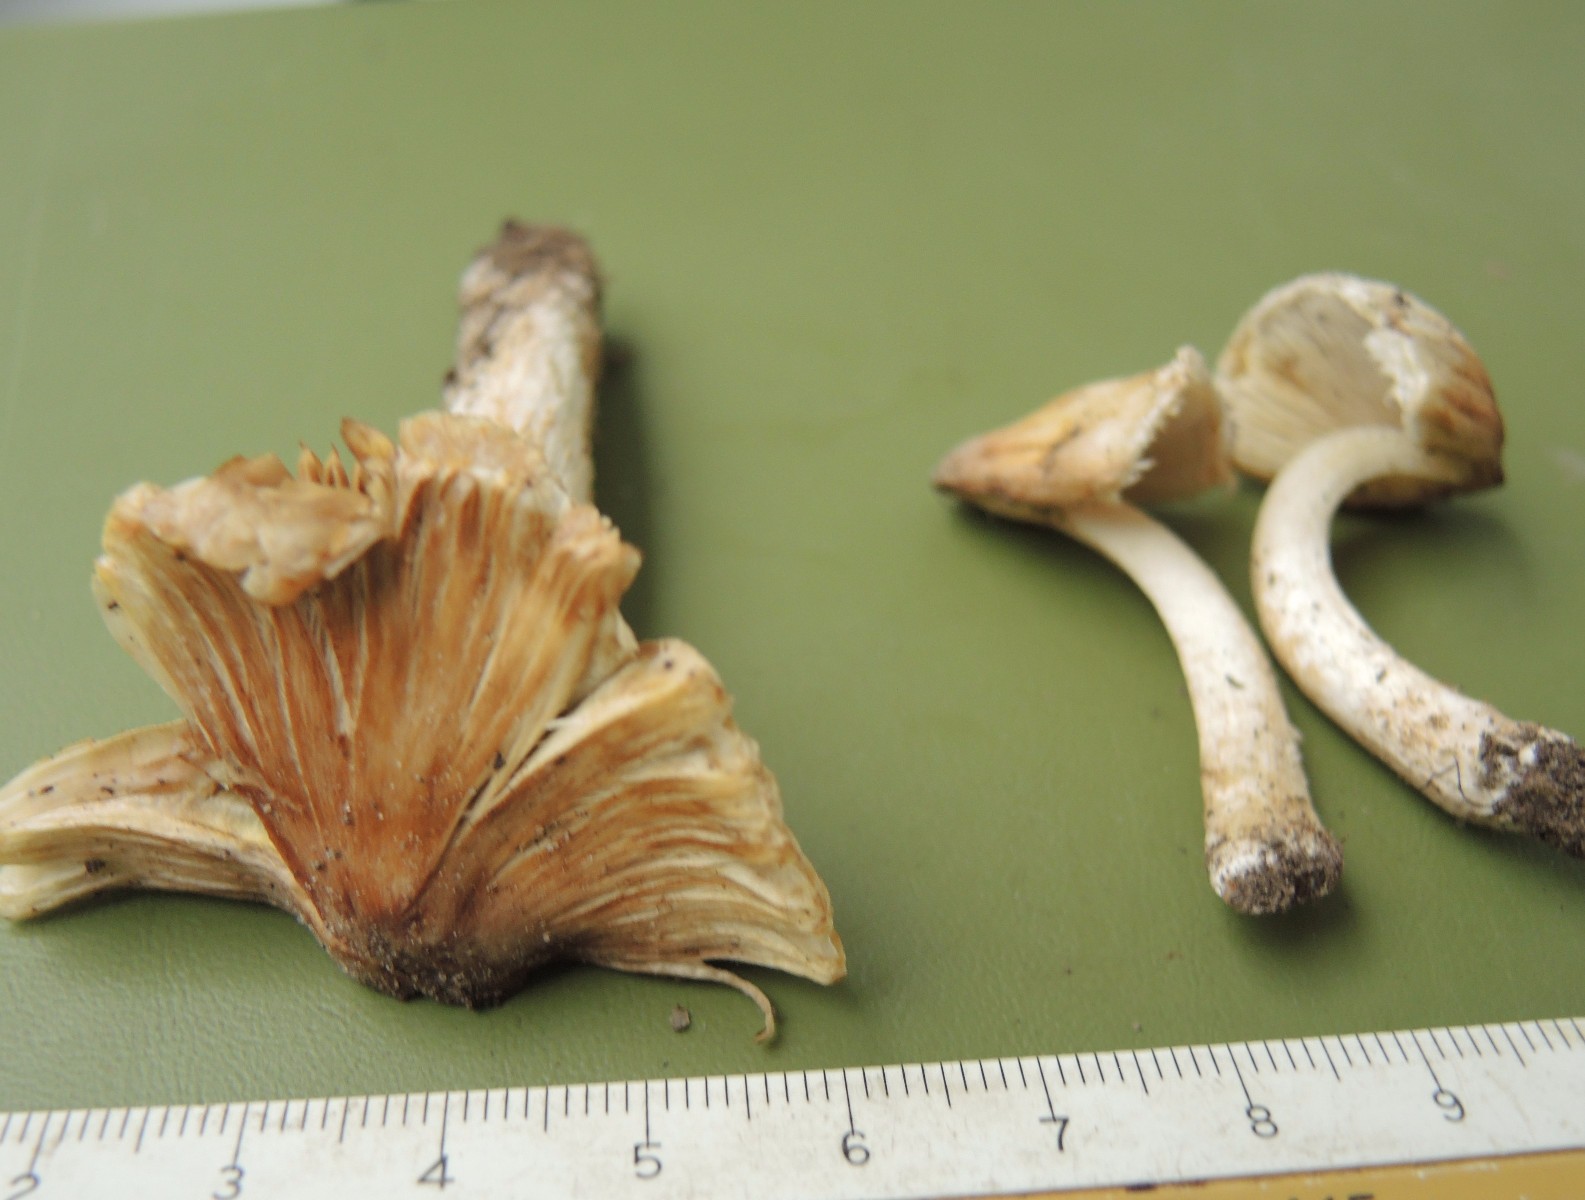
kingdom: Fungi
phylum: Basidiomycota
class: Agaricomycetes
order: Agaricales
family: Inocybaceae
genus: Pseudosperma
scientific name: Pseudosperma
